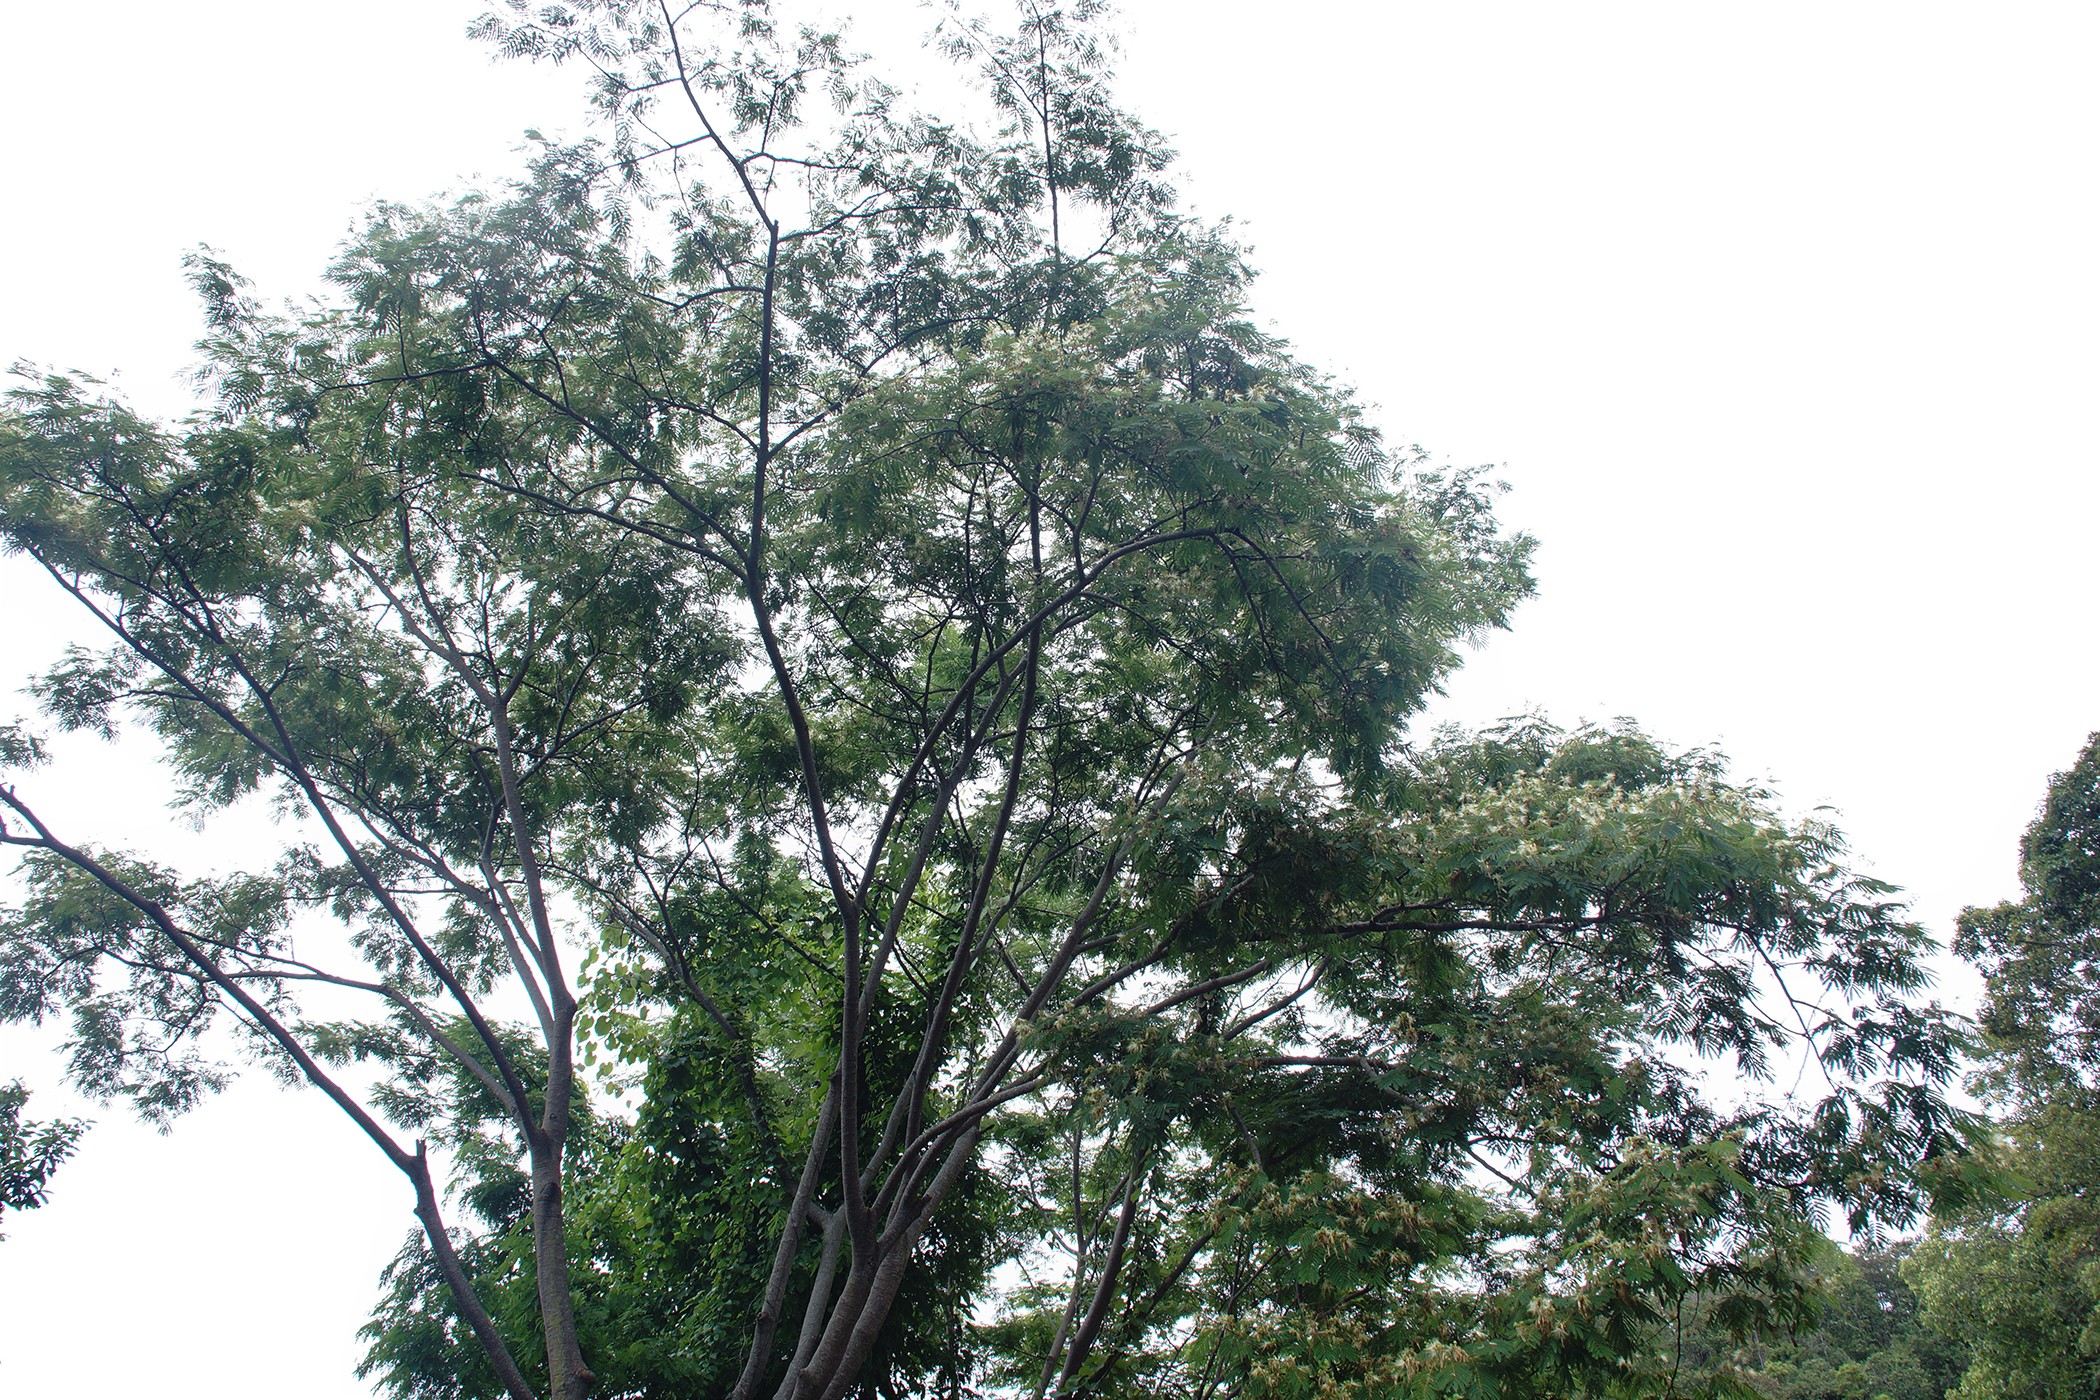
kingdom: Plantae
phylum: Tracheophyta
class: Magnoliopsida
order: Fabales
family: Fabaceae
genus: Albizia
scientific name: Albizia chinensis
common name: Chinese albizia
